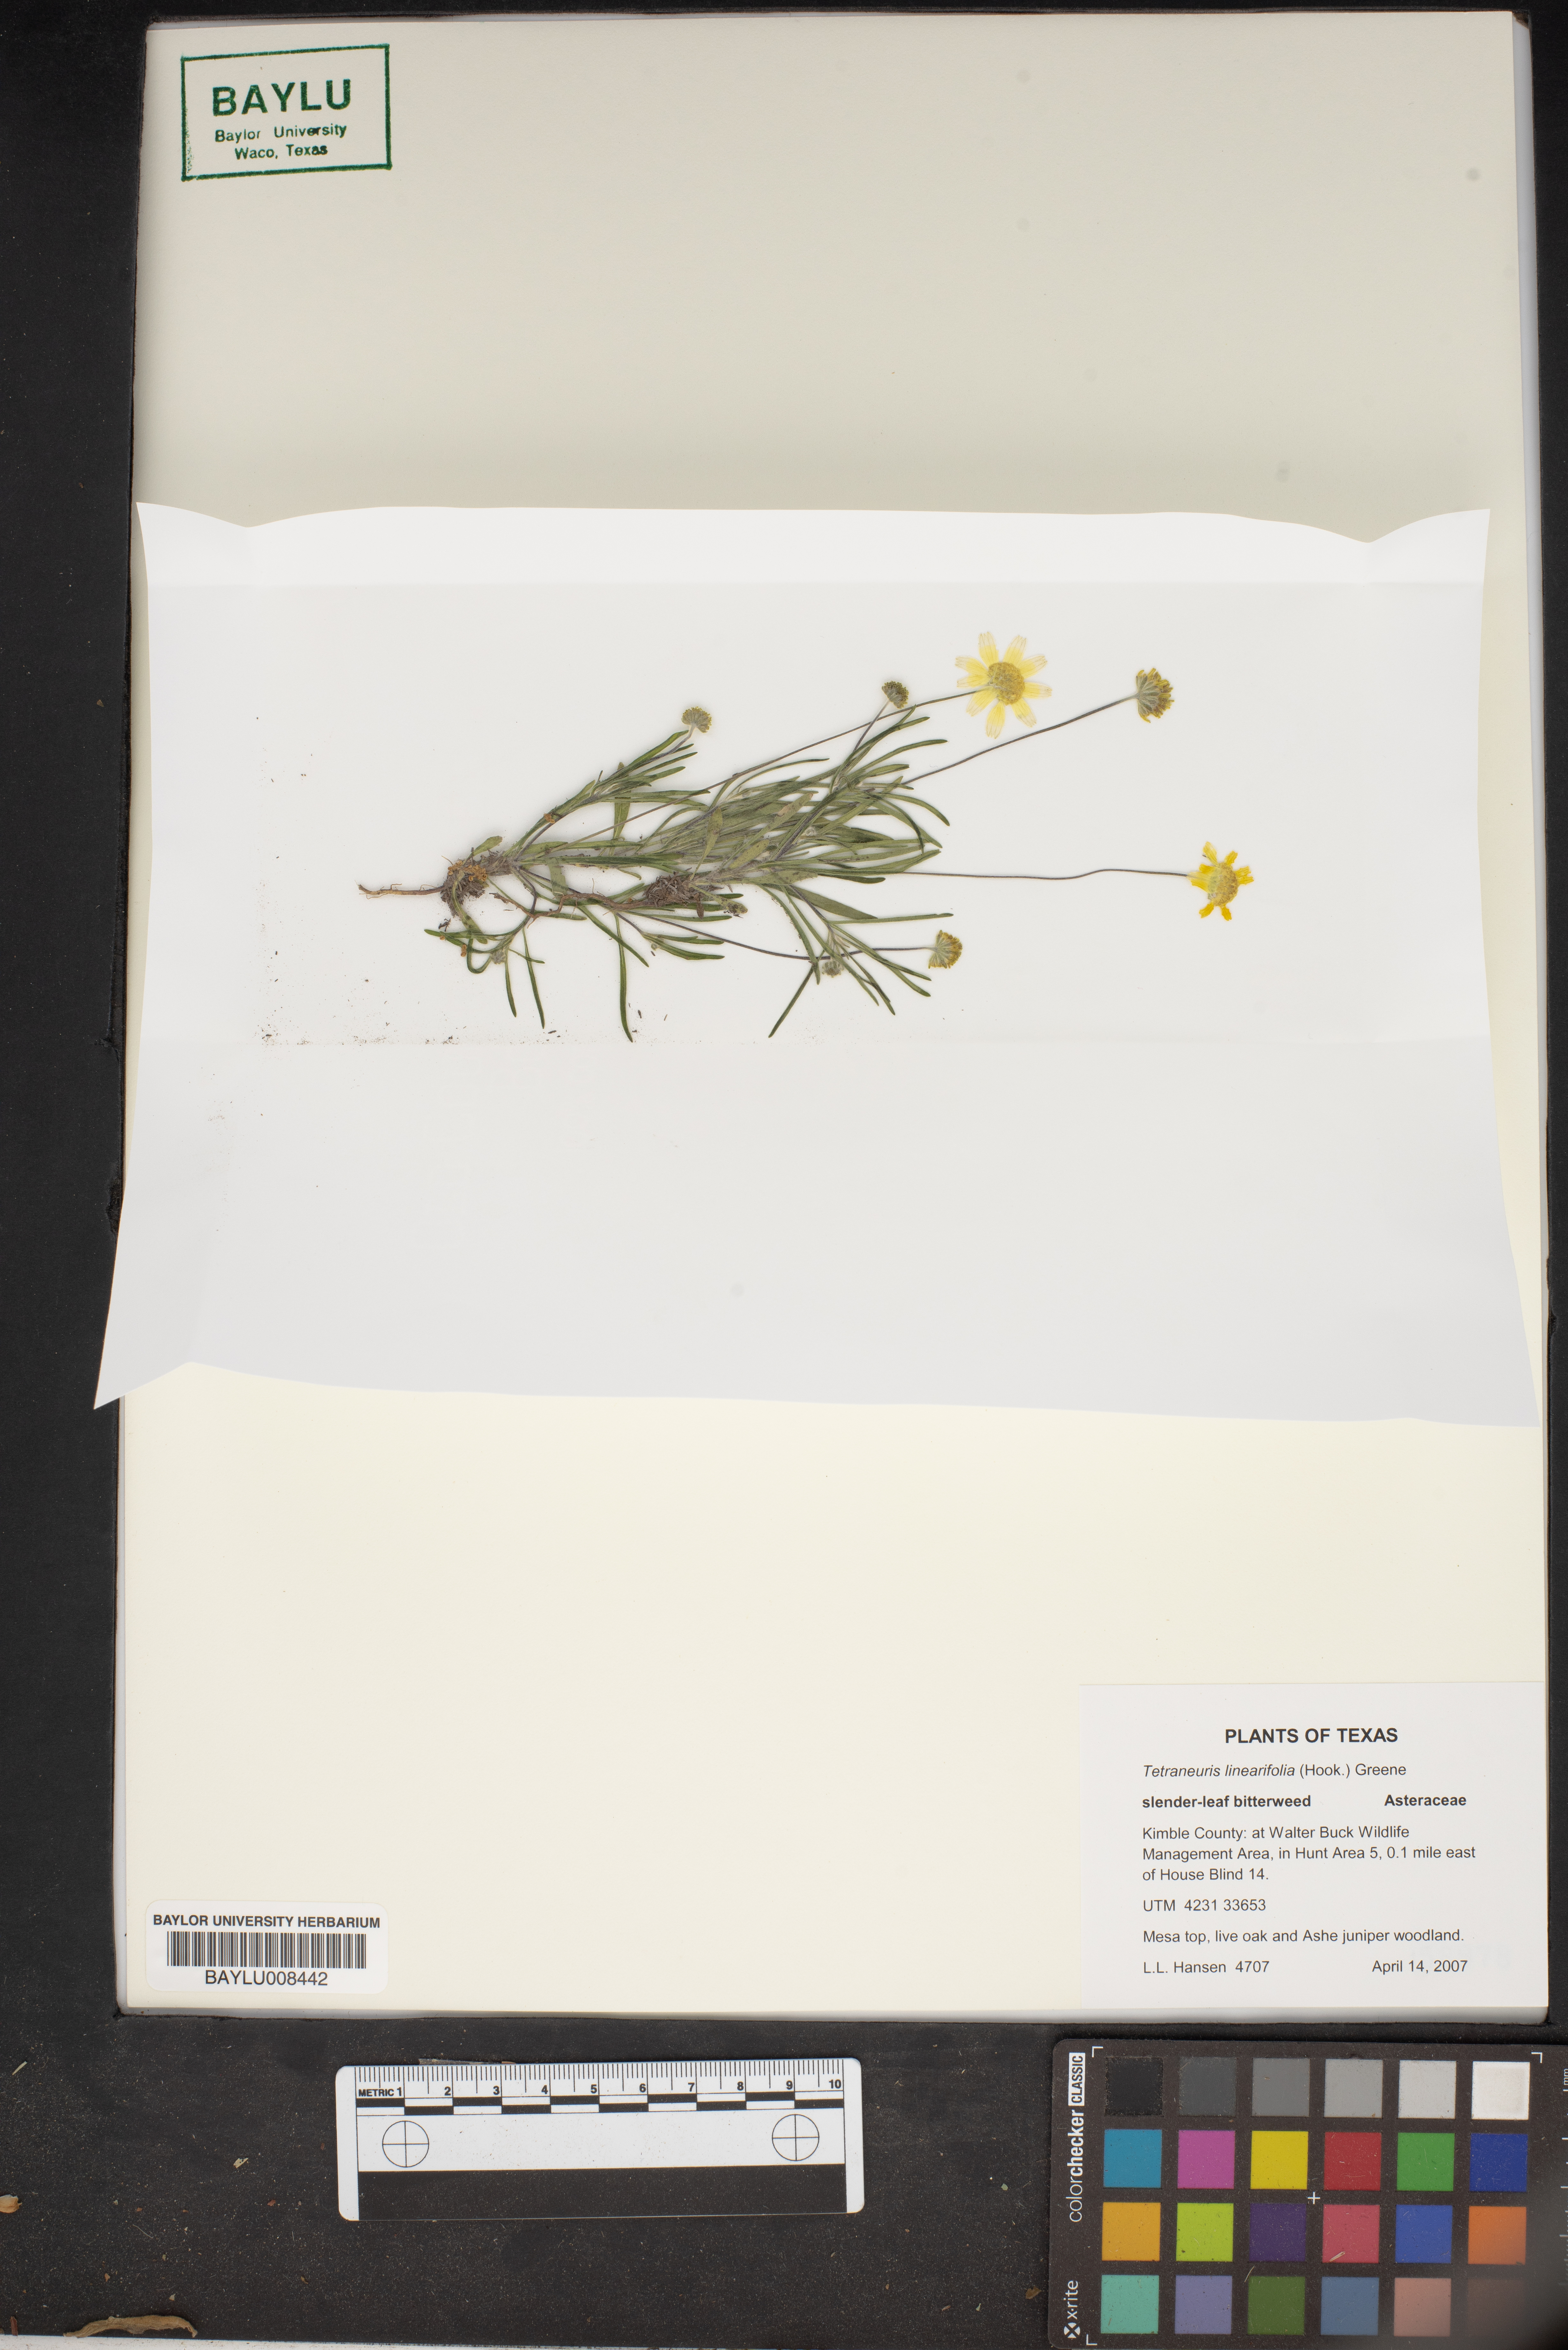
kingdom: Plantae
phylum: Tracheophyta
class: Magnoliopsida
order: Asterales
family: Asteraceae
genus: Tetraneuris
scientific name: Tetraneuris linearifolia
